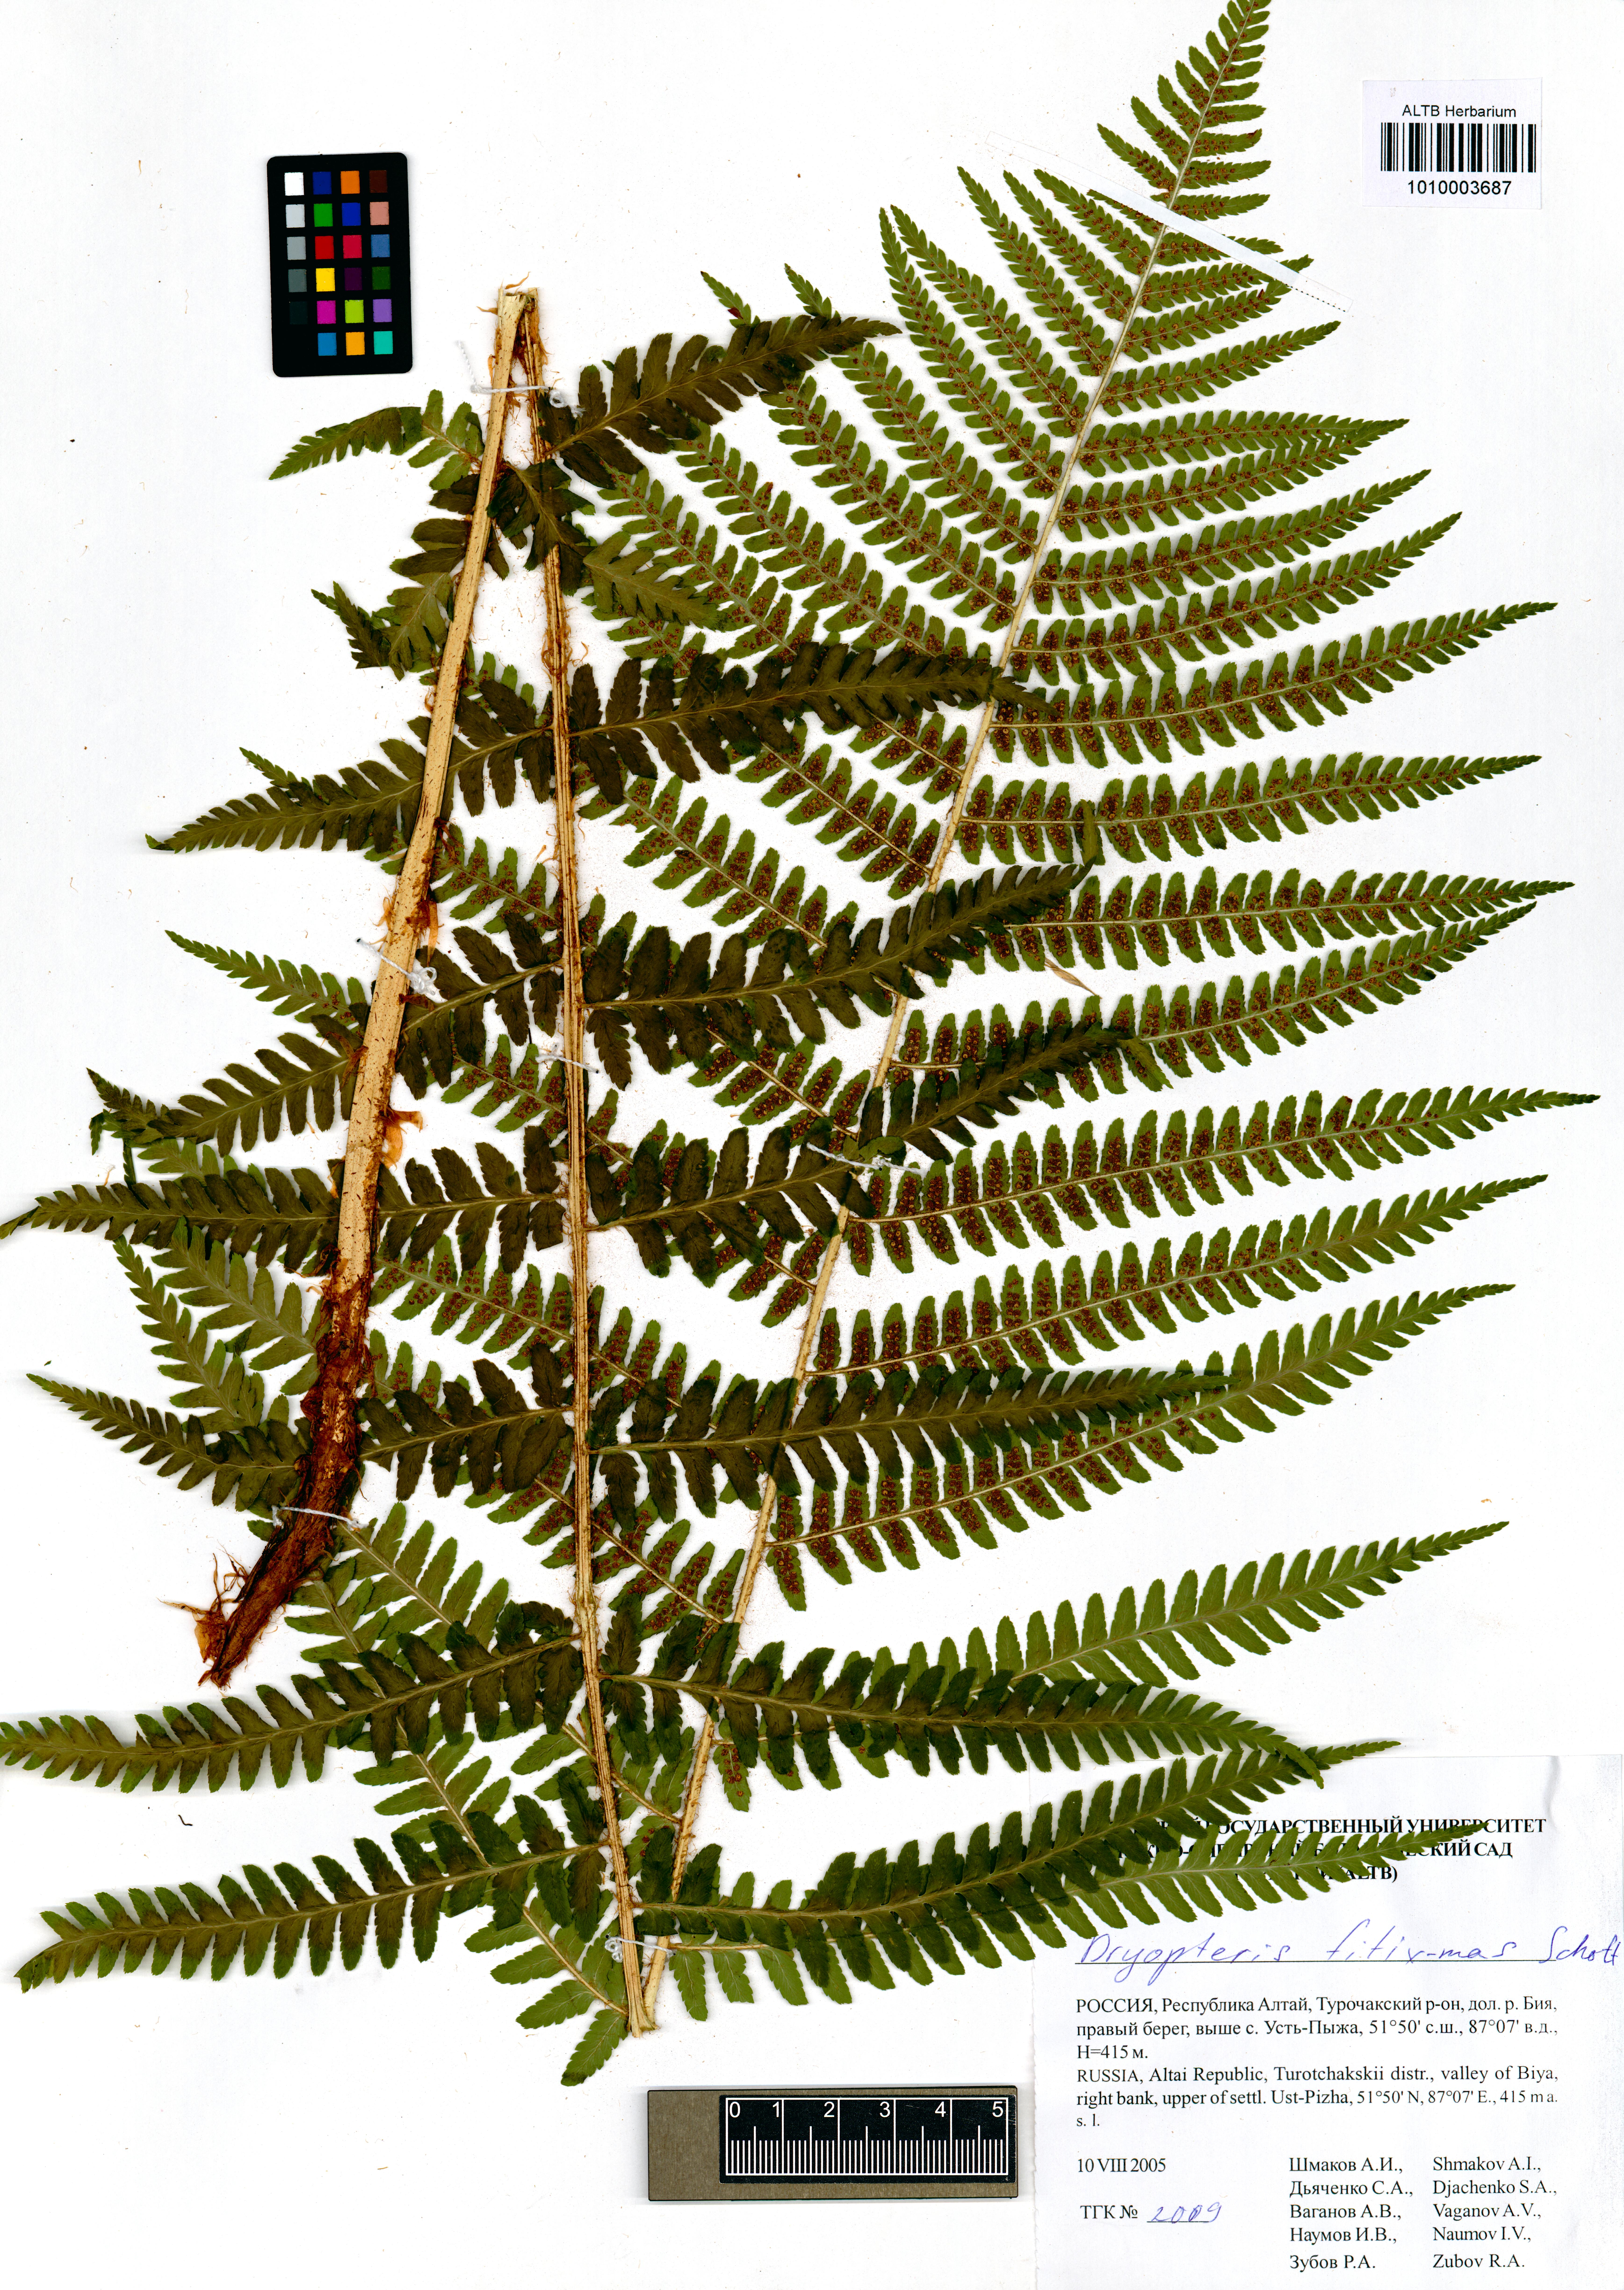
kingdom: Plantae
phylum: Tracheophyta
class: Polypodiopsida
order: Polypodiales
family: Dryopteridaceae
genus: Dryopteris
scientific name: Dryopteris filix-mas
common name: Male fern
